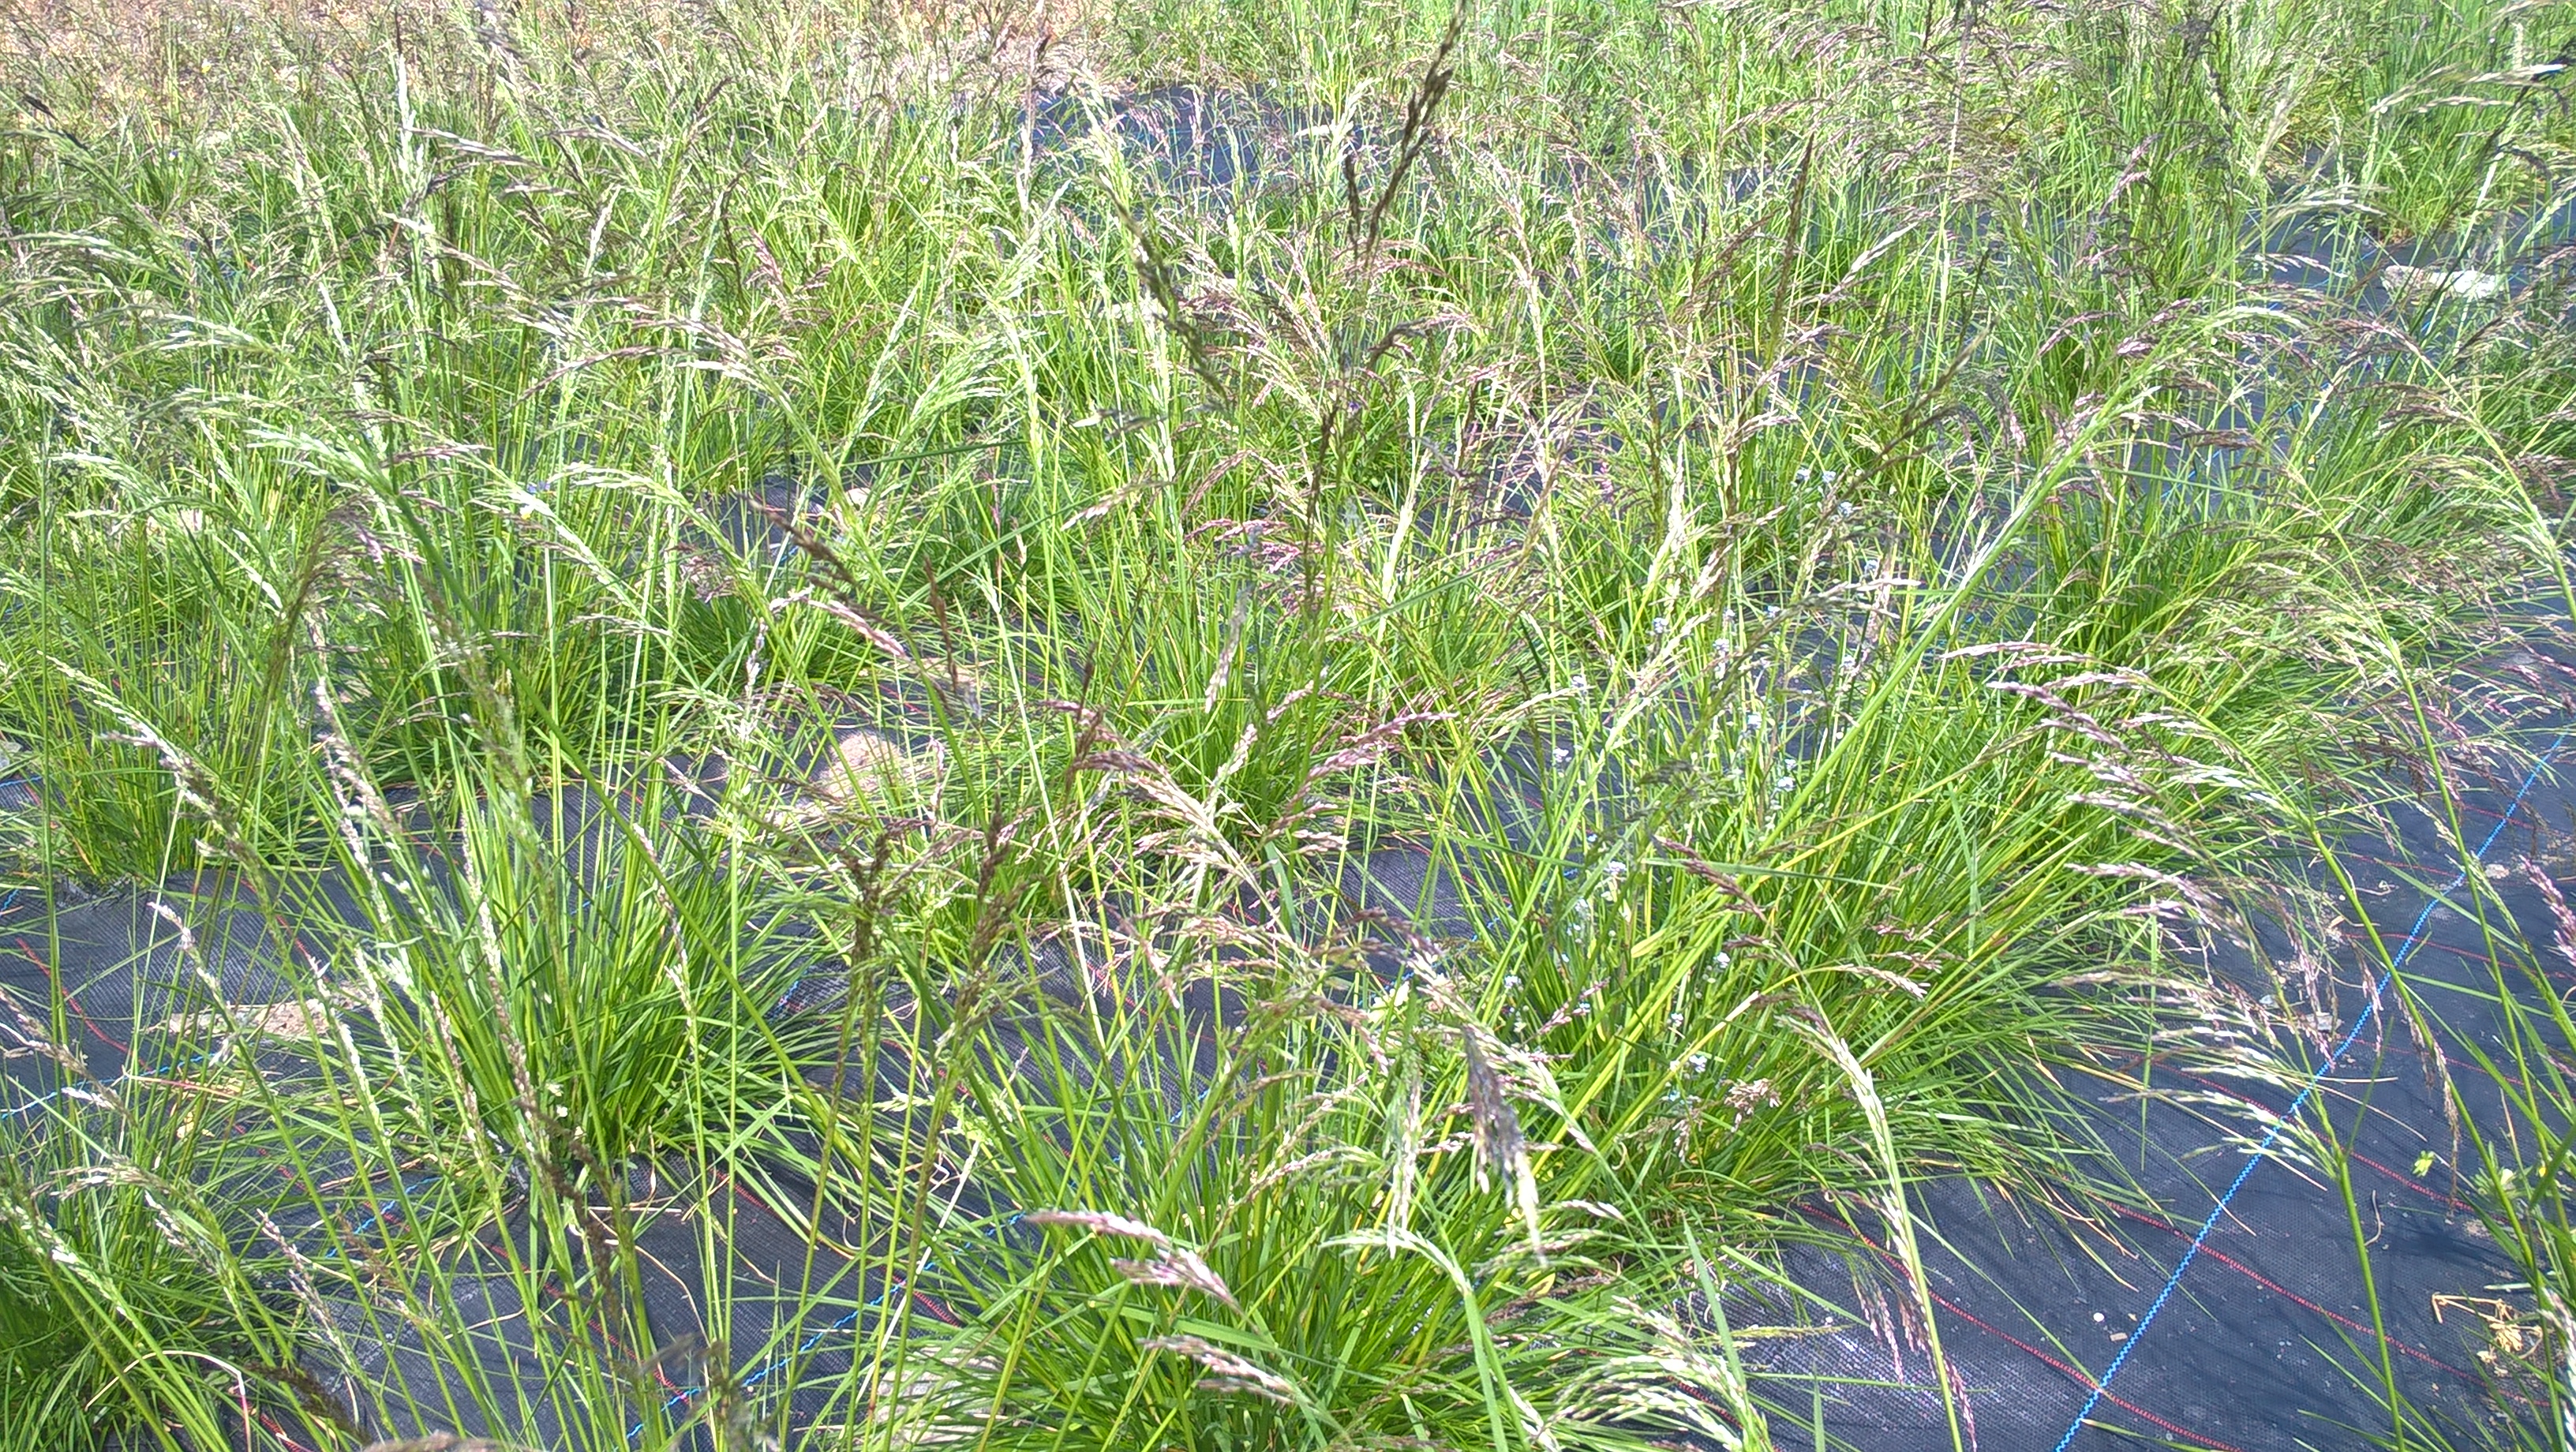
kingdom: Plantae
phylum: Tracheophyta
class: Liliopsida
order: Poales
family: Poaceae
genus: Deschampsia
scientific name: Deschampsia cespitosa
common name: Tufted hair-grass
